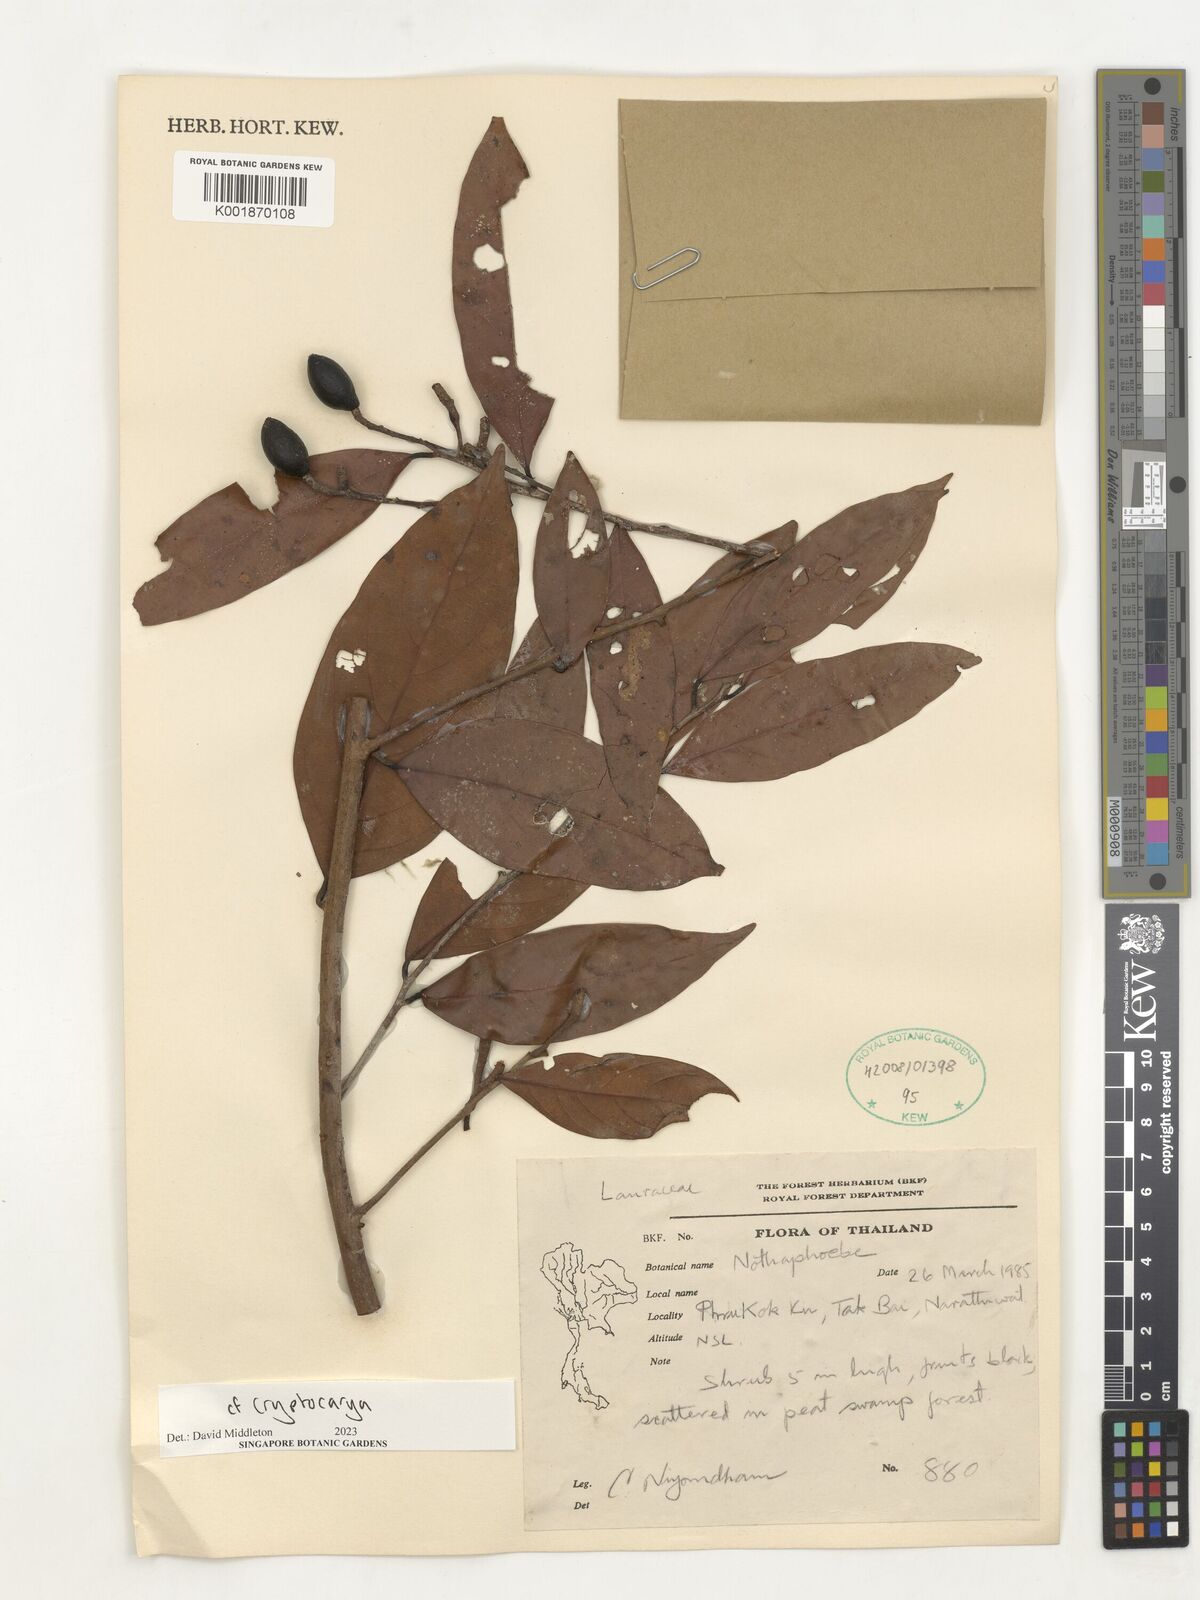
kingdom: Plantae
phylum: Tracheophyta
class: Magnoliopsida
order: Laurales
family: Lauraceae
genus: Cryptocarya
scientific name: Cryptocarya
